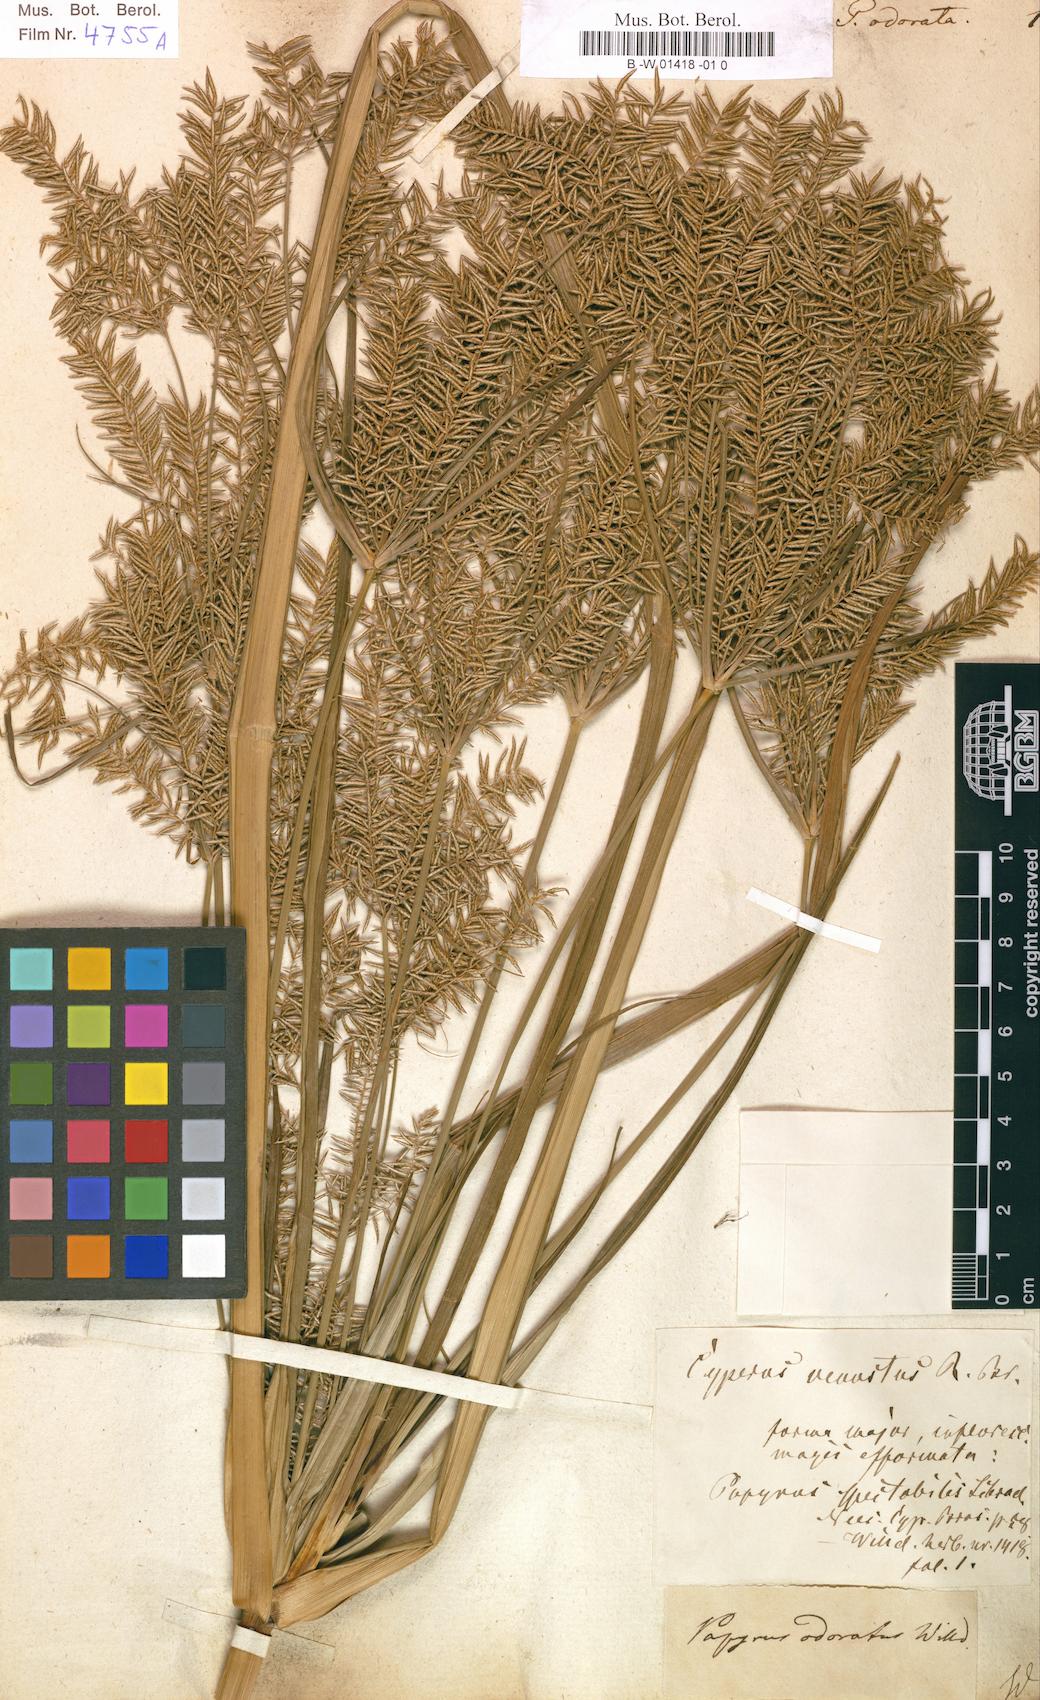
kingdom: Plantae
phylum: Tracheophyta
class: Liliopsida
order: Poales
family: Cyperaceae
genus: Cyperus
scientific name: Cyperus odoratus
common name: Fragrant flatsedge
